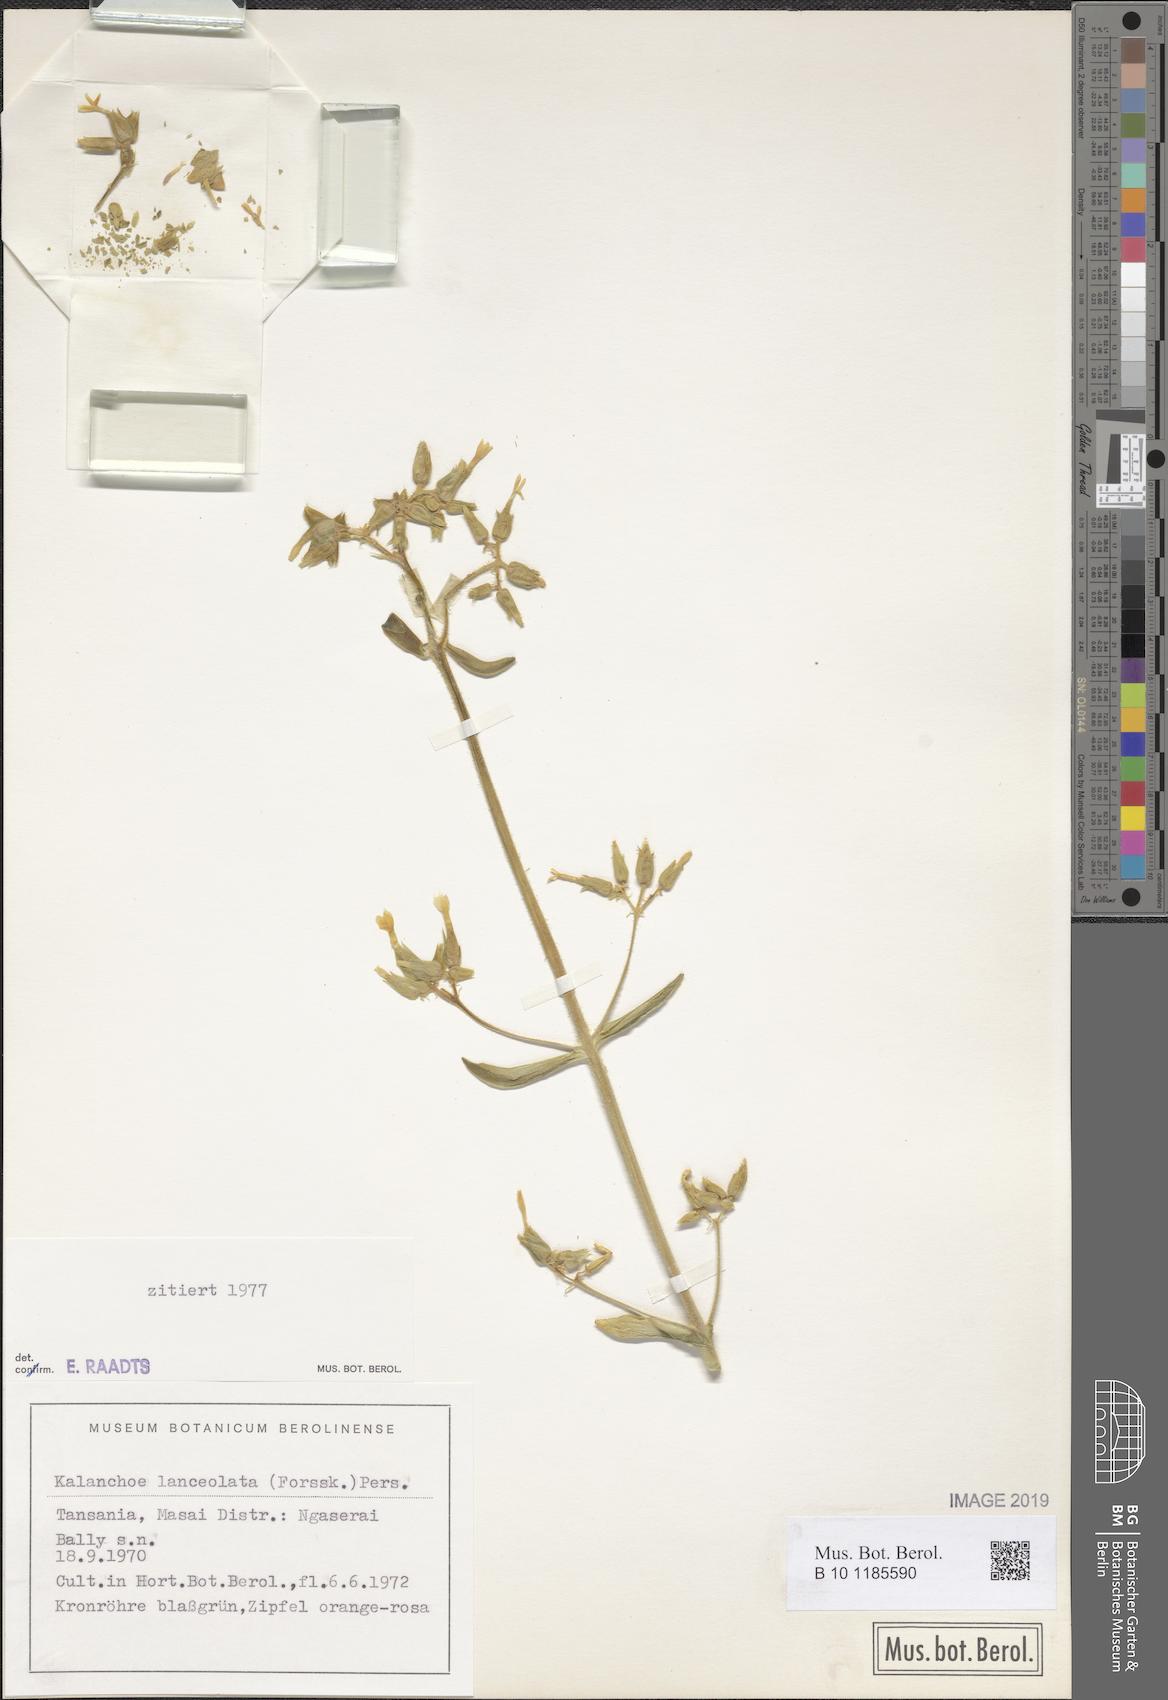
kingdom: Plantae
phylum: Tracheophyta
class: Magnoliopsida
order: Saxifragales
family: Crassulaceae
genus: Kalanchoe
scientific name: Kalanchoe lanceolata
